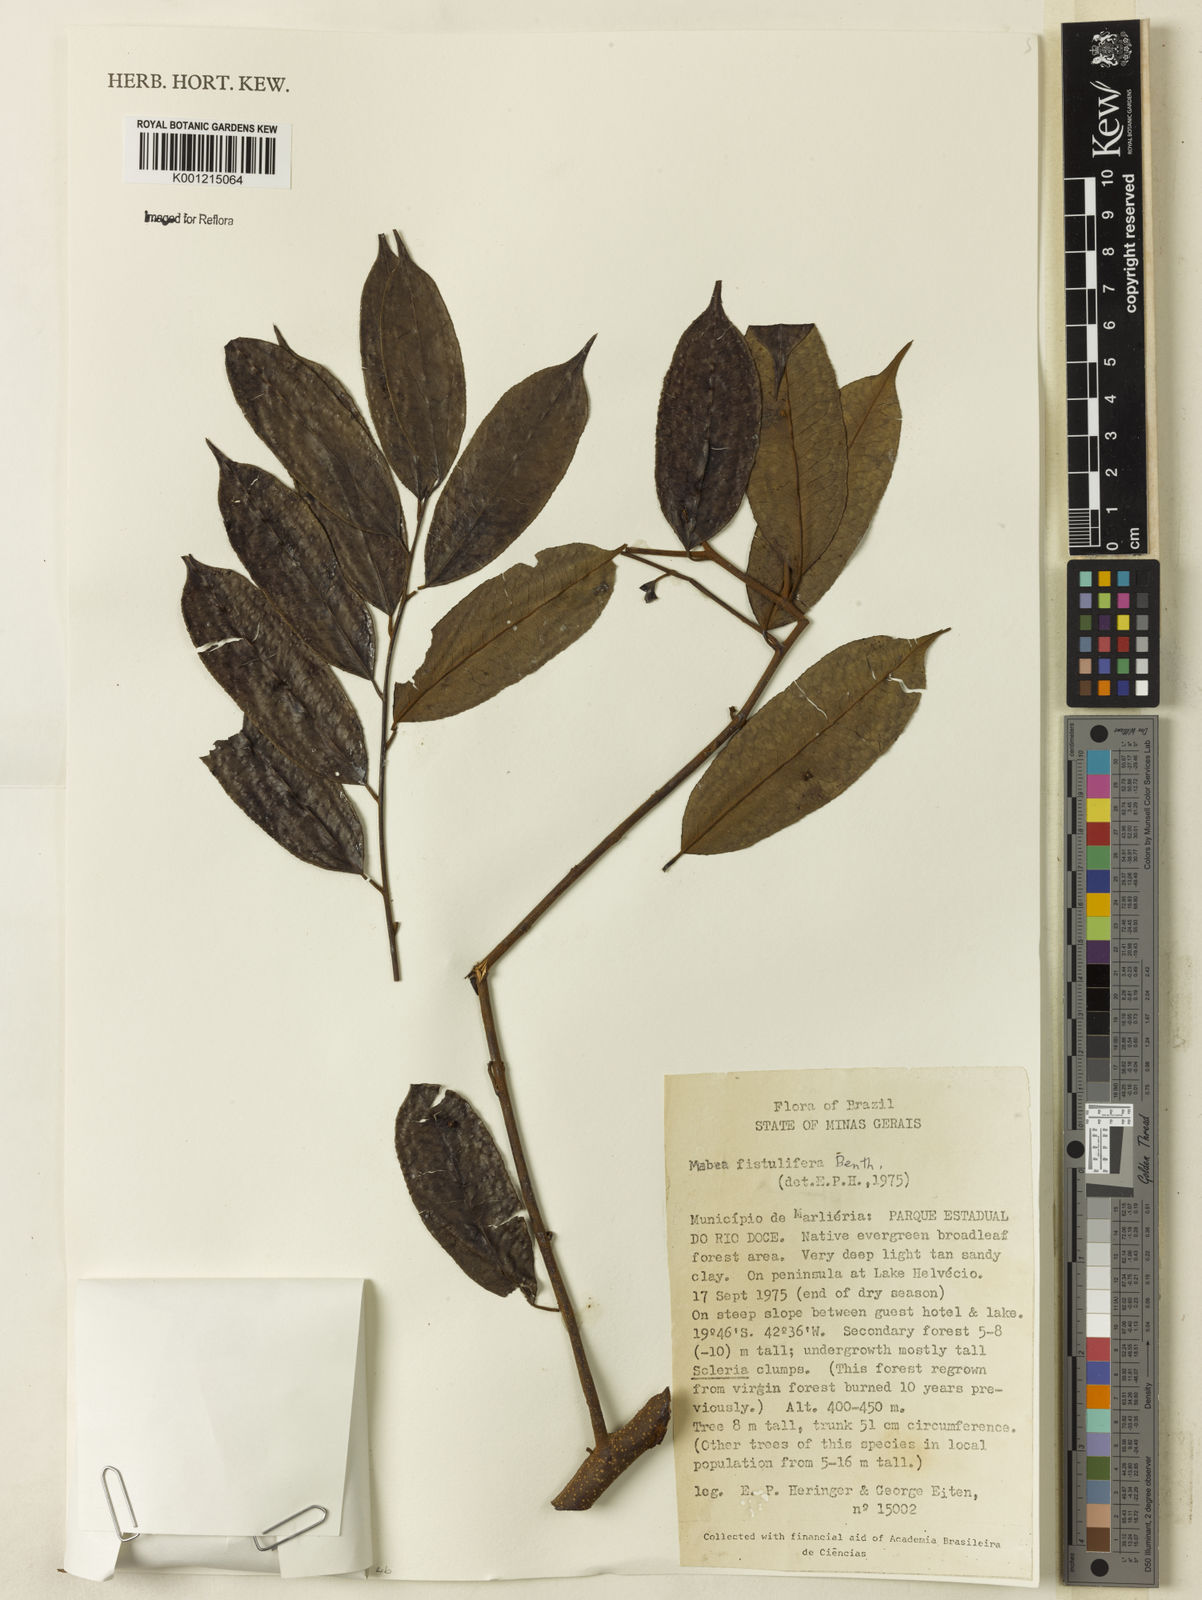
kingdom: Plantae
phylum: Tracheophyta
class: Magnoliopsida
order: Malpighiales
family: Euphorbiaceae
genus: Mabea
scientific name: Mabea fistulifera
